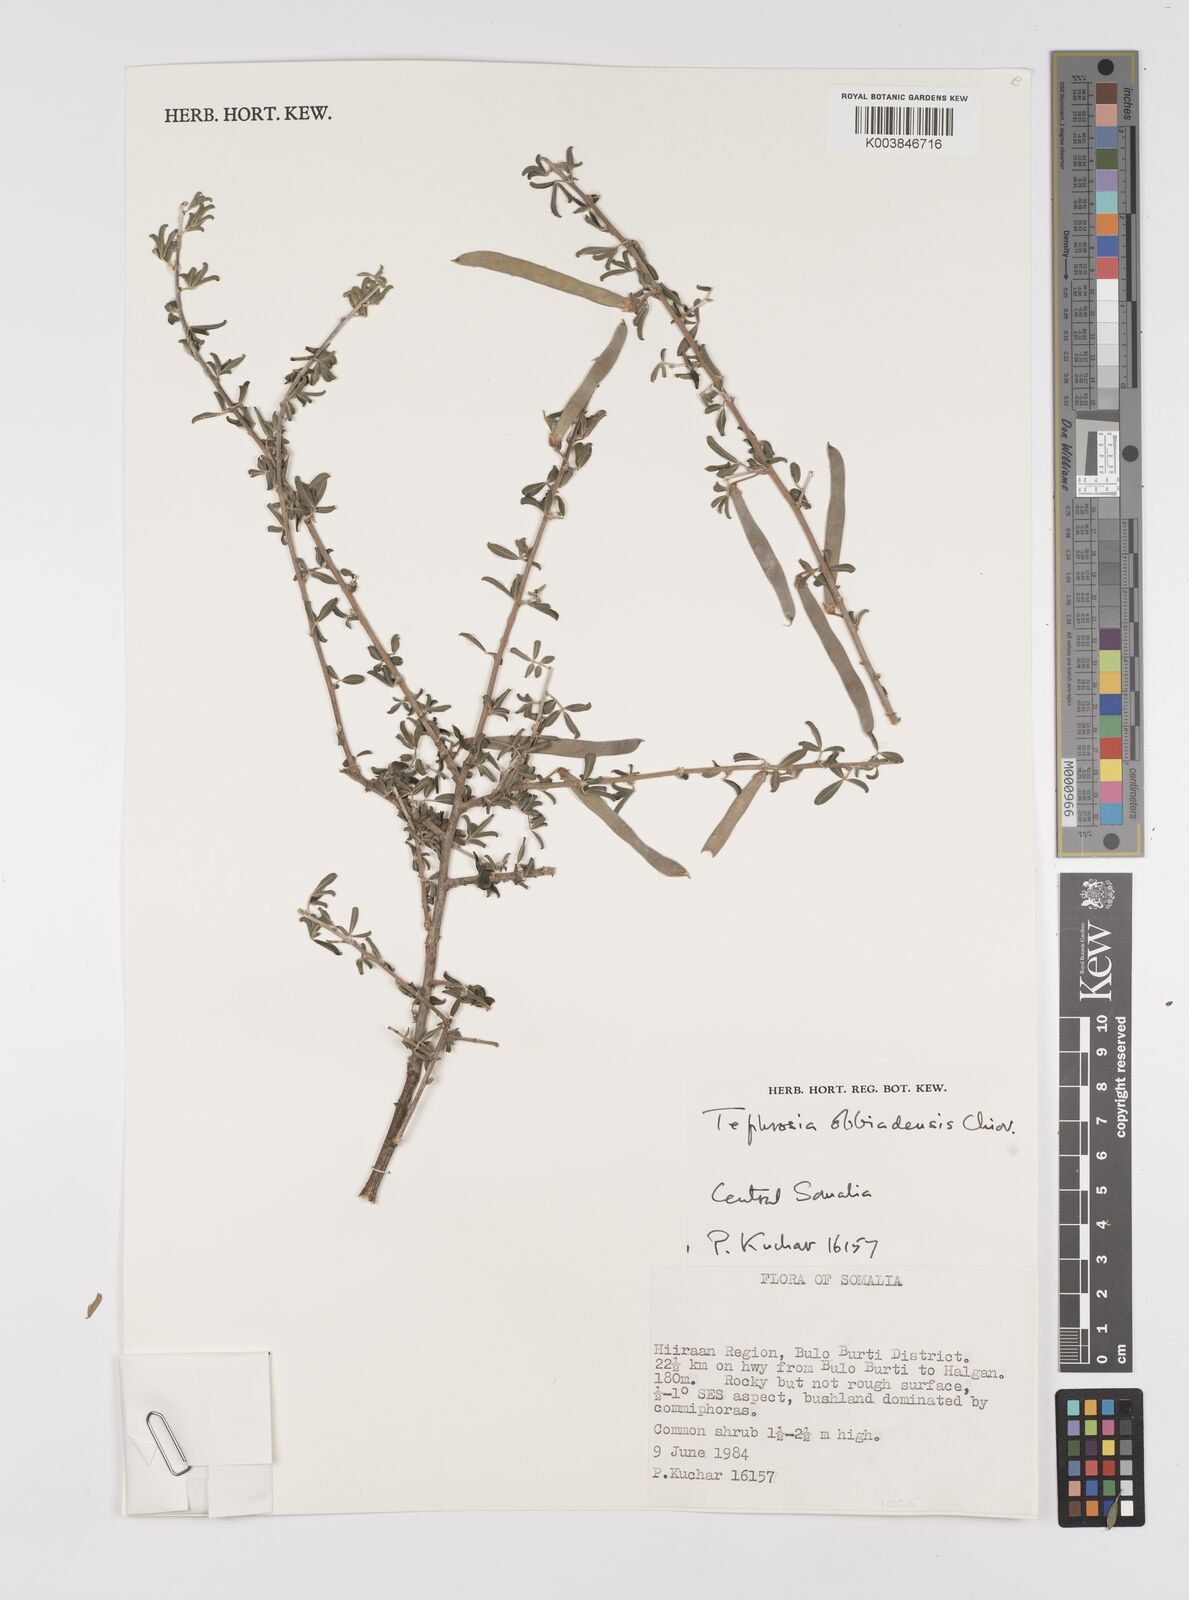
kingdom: Plantae
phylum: Tracheophyta
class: Magnoliopsida
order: Fabales
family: Fabaceae
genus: Tephrosia
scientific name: Tephrosia obbiadensis
